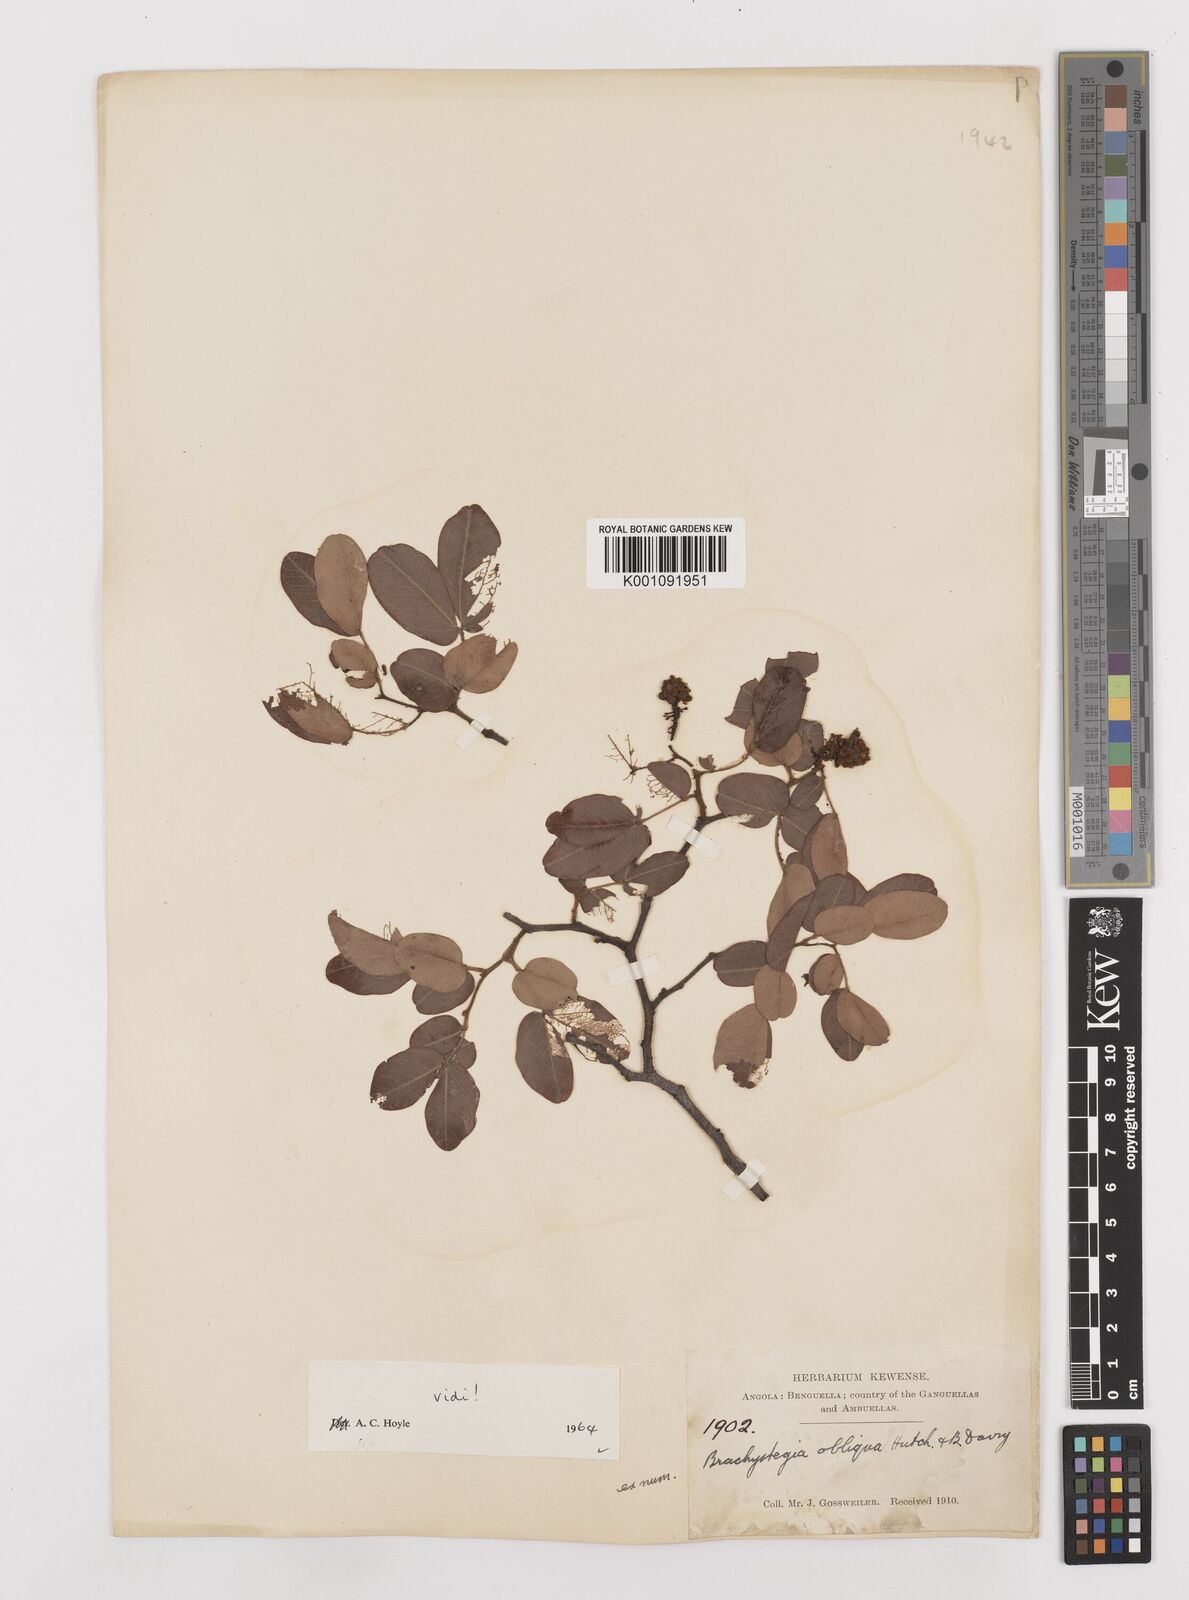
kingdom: Plantae
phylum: Tracheophyta
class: Magnoliopsida
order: Fabales
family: Fabaceae
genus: Brachystegia
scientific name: Brachystegia bakeriana
